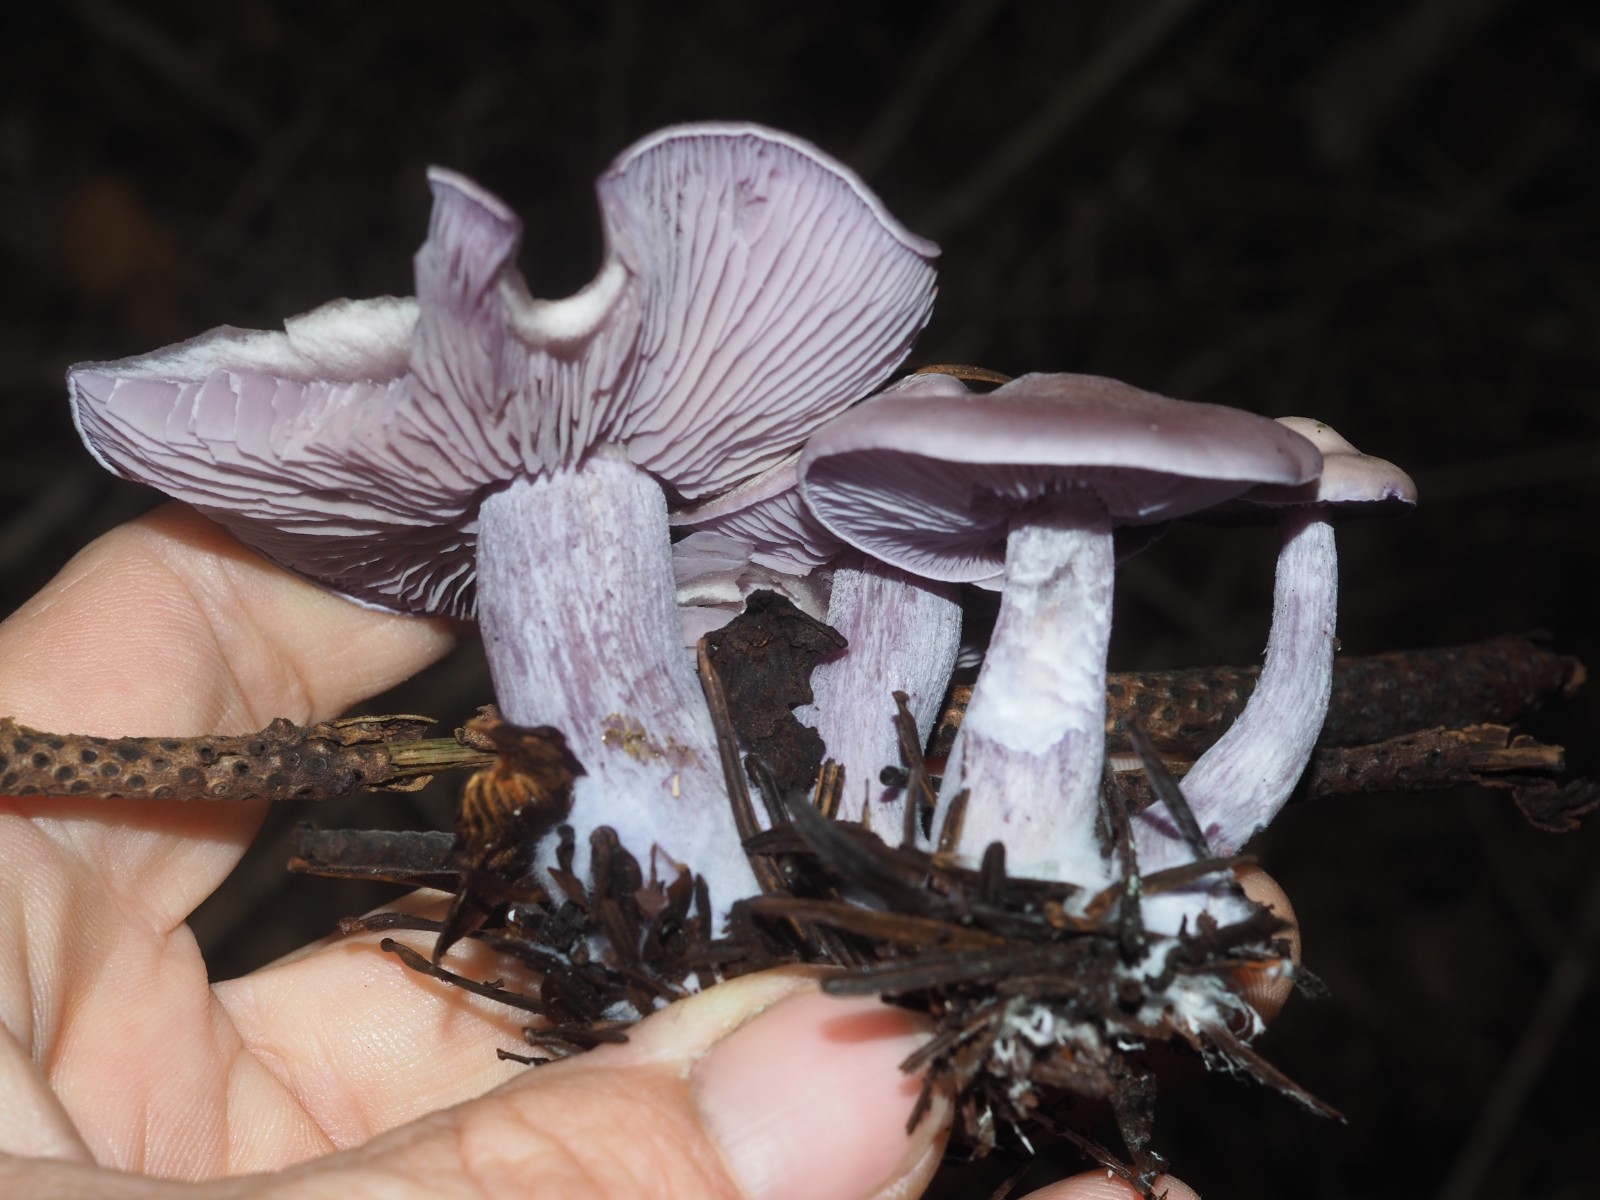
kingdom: Fungi
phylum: Basidiomycota
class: Agaricomycetes
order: Agaricales
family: Tricholomataceae
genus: Lepista
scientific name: Lepista nuda
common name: violet hekseringshat
